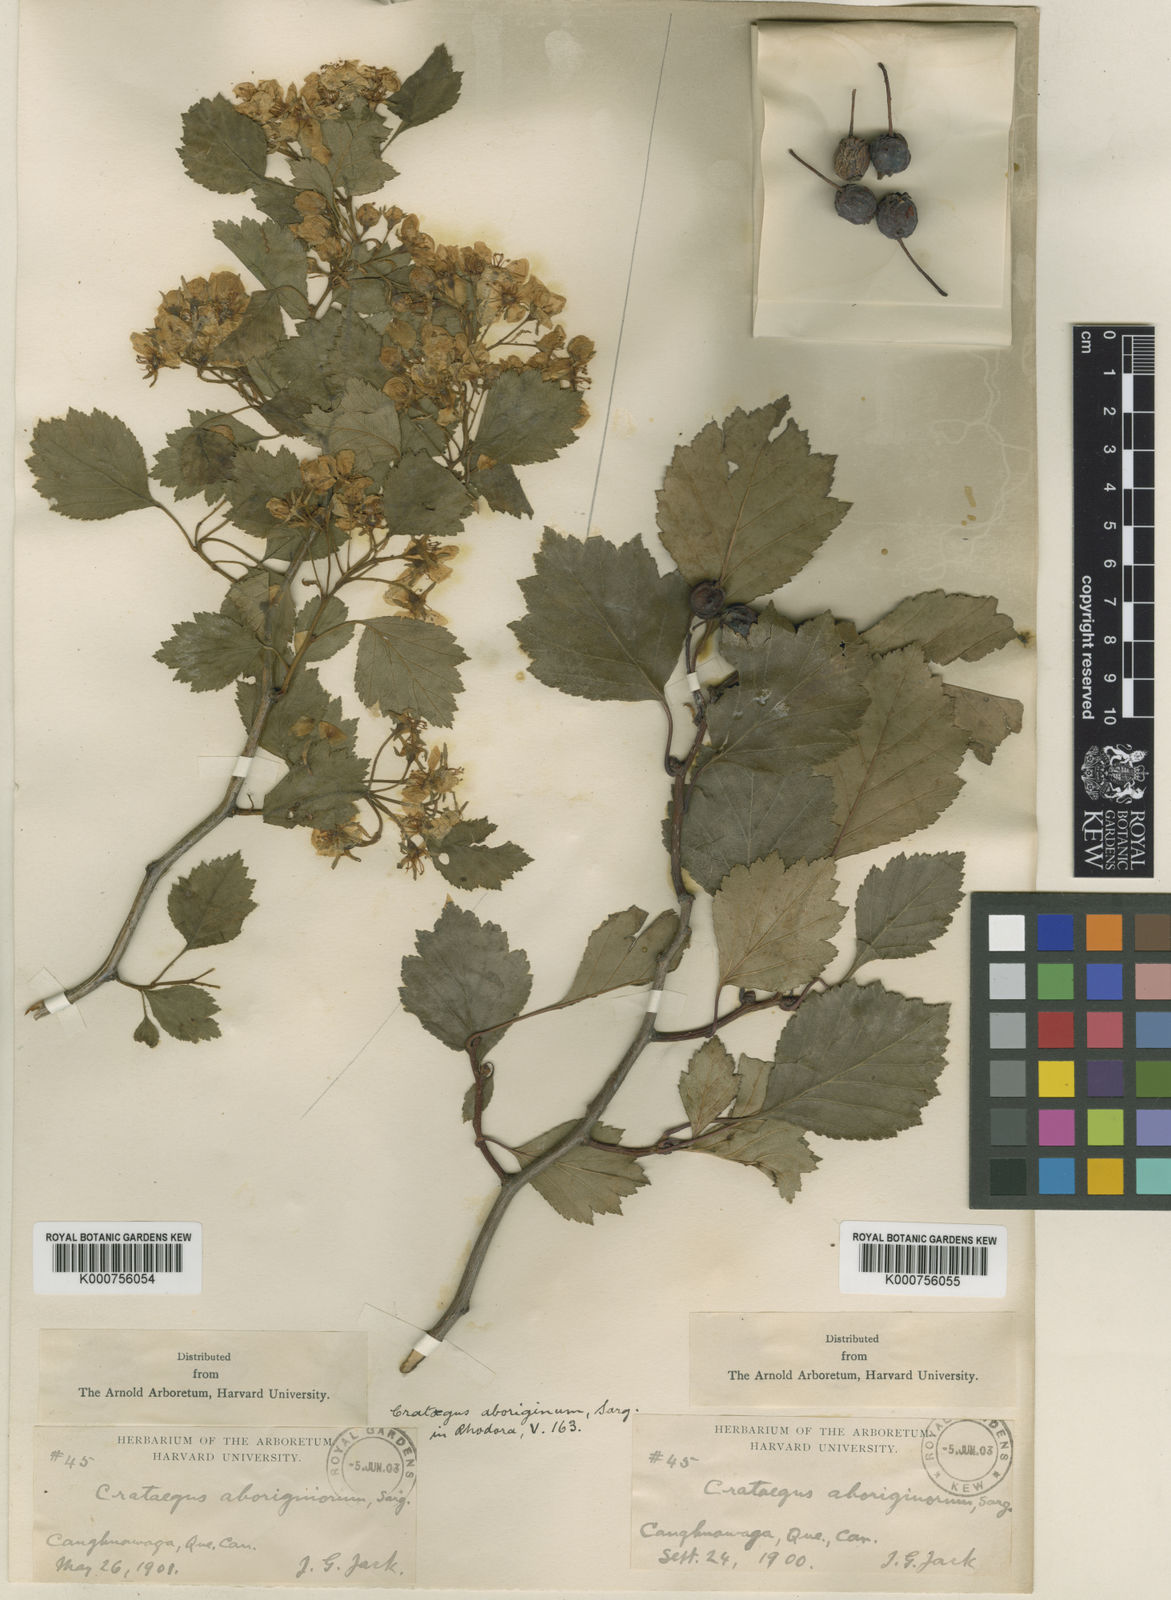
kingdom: Plantae
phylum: Tracheophyta
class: Magnoliopsida
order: Rosales
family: Rosaceae
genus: Crataegus
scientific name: Crataegus chrysocarpa
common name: Fire-berry hawthorn
